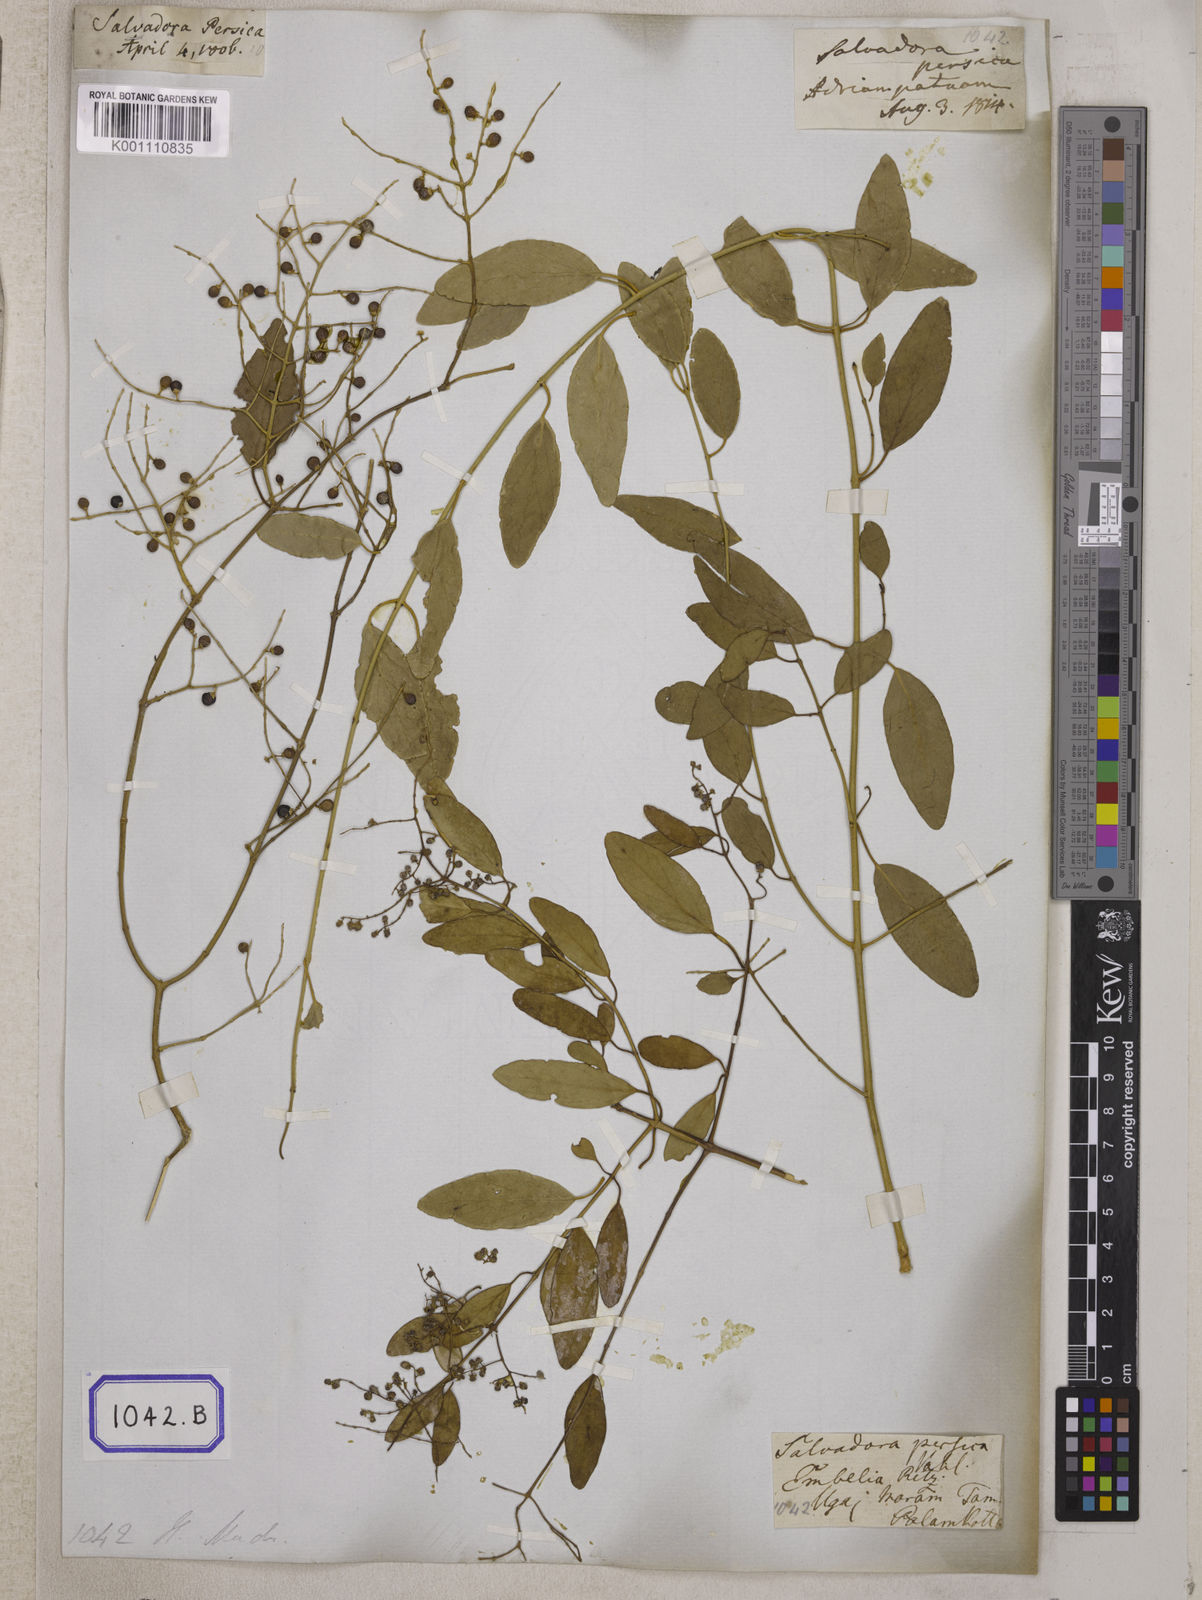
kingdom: Plantae
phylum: Tracheophyta
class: Magnoliopsida
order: Brassicales
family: Salvadoraceae
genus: Salvadora
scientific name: Salvadora persica
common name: Toothbrushtree
